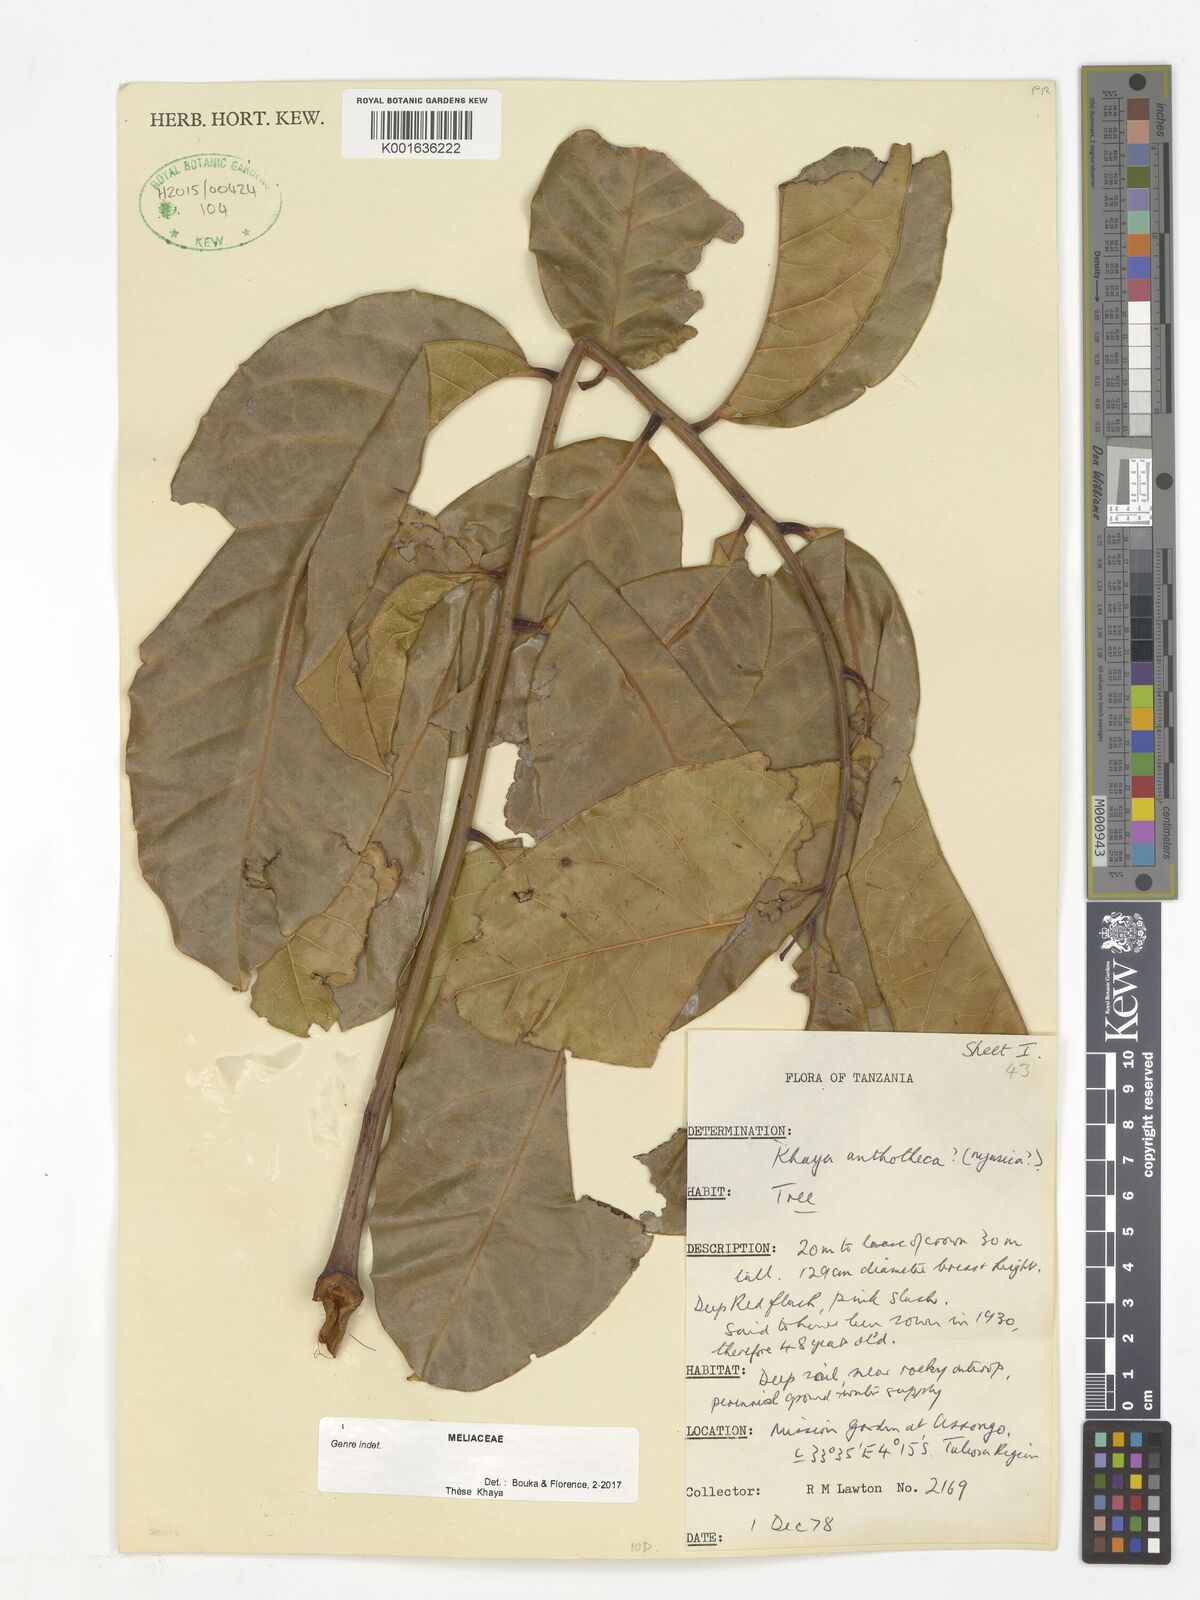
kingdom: Plantae
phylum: Tracheophyta
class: Magnoliopsida
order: Sapindales
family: Meliaceae
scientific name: Meliaceae
